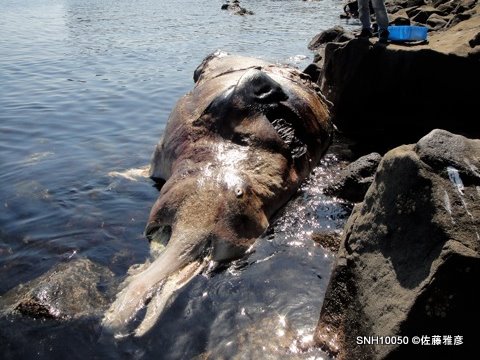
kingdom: Animalia
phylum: Chordata
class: Mammalia
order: Cetacea
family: Hyperoodontidae
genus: Berardius
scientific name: Berardius bairdii
